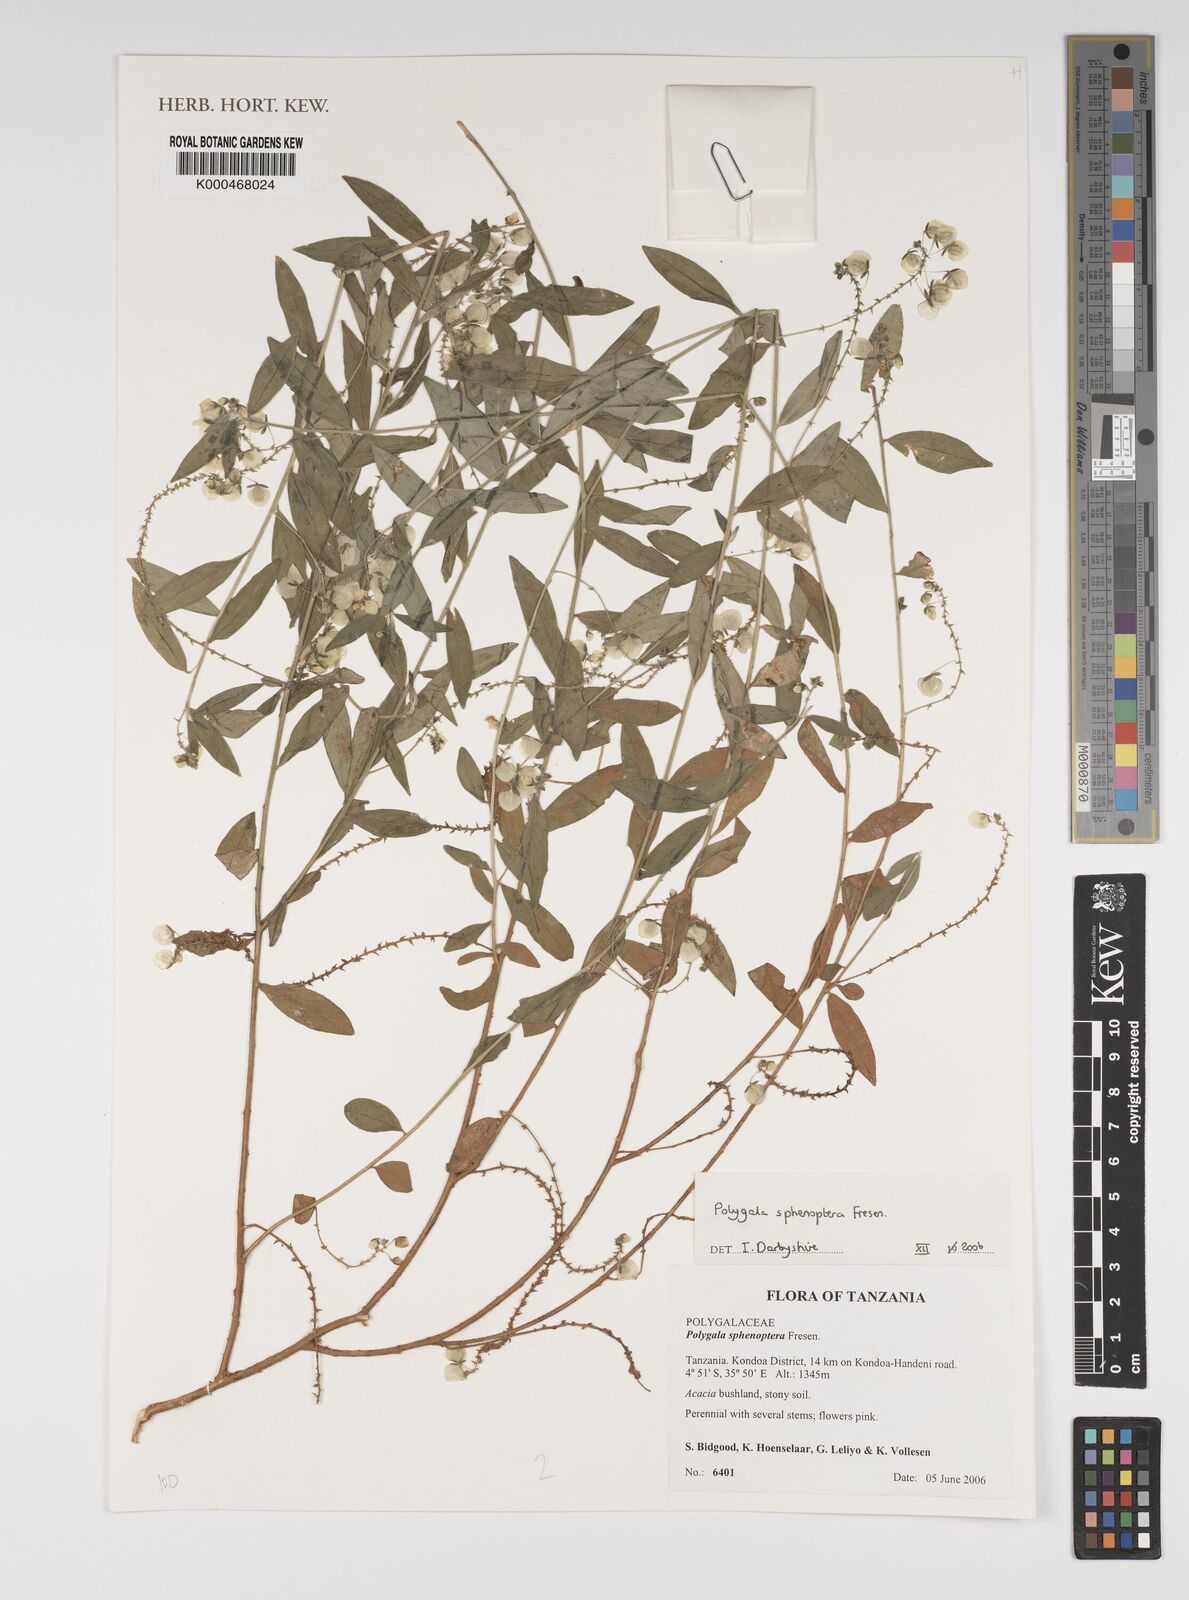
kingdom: Plantae
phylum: Tracheophyta
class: Magnoliopsida
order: Fabales
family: Polygalaceae
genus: Polygala
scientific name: Polygala sphenoptera
